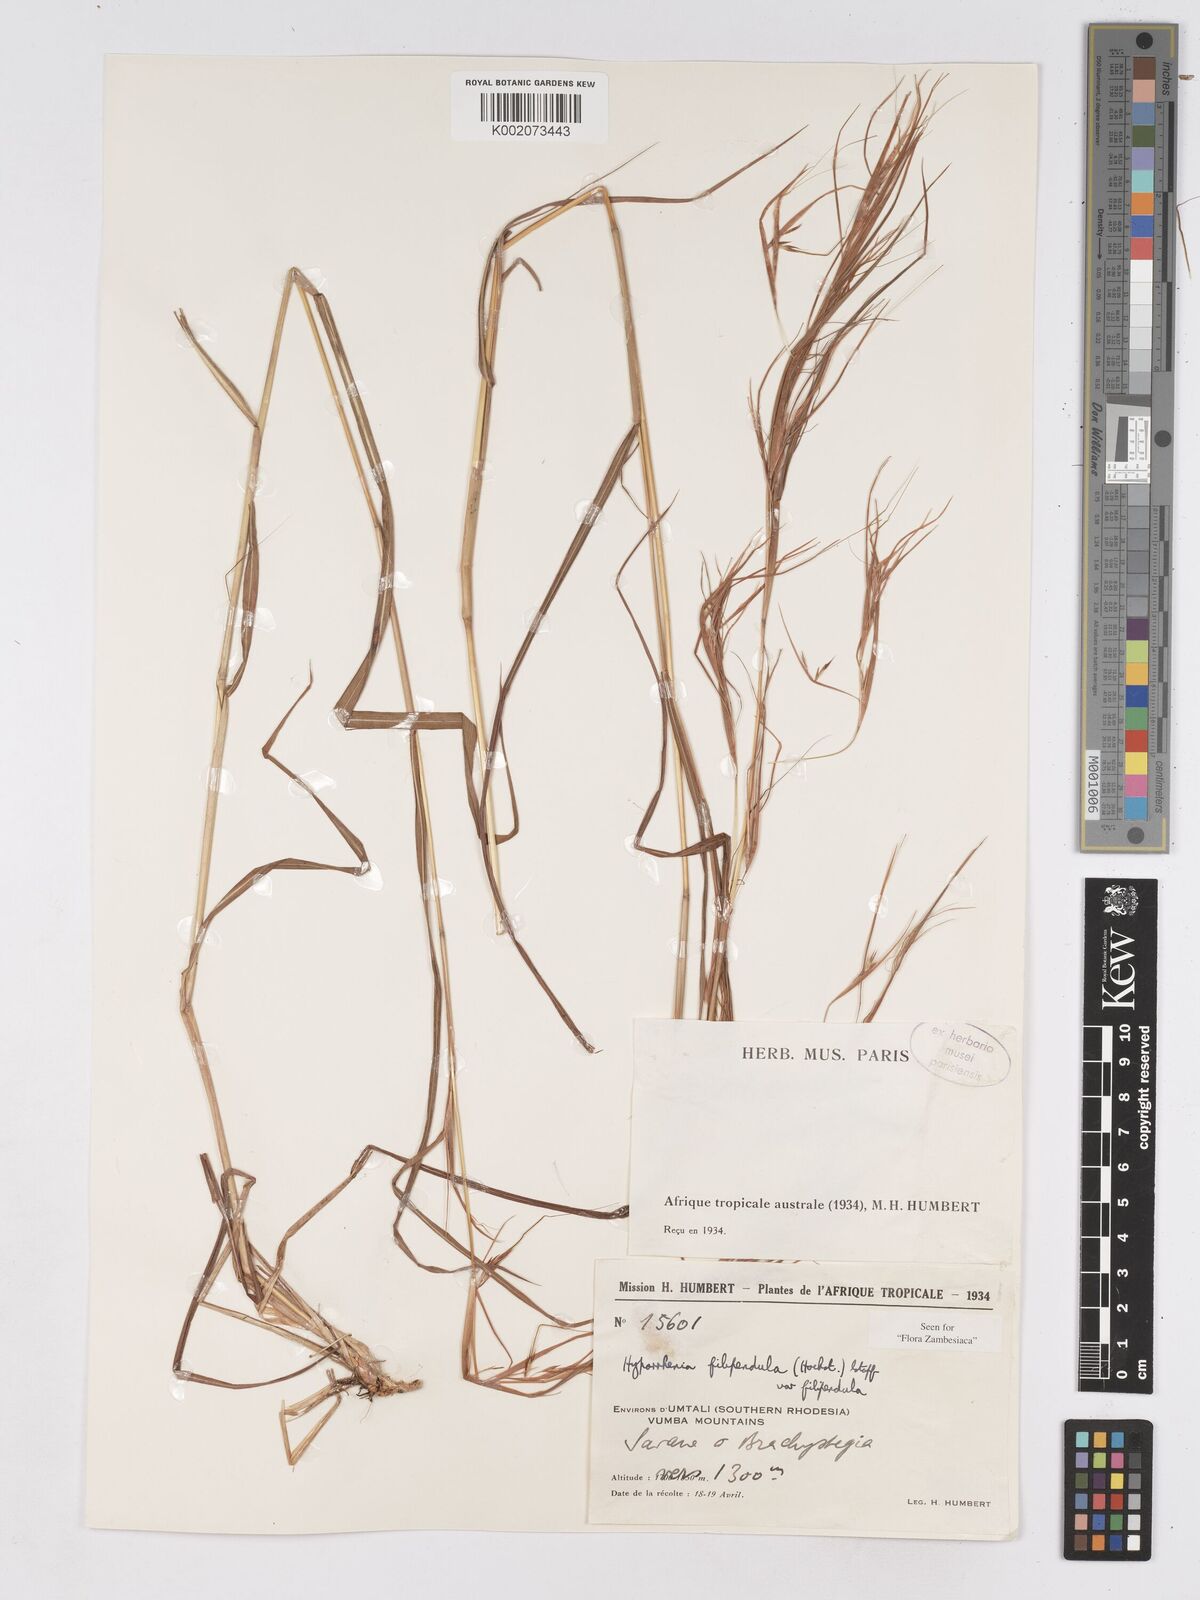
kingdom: Plantae
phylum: Tracheophyta
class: Liliopsida
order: Poales
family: Poaceae
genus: Hyparrhenia
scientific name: Hyparrhenia filipendula
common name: Tambookie grass
